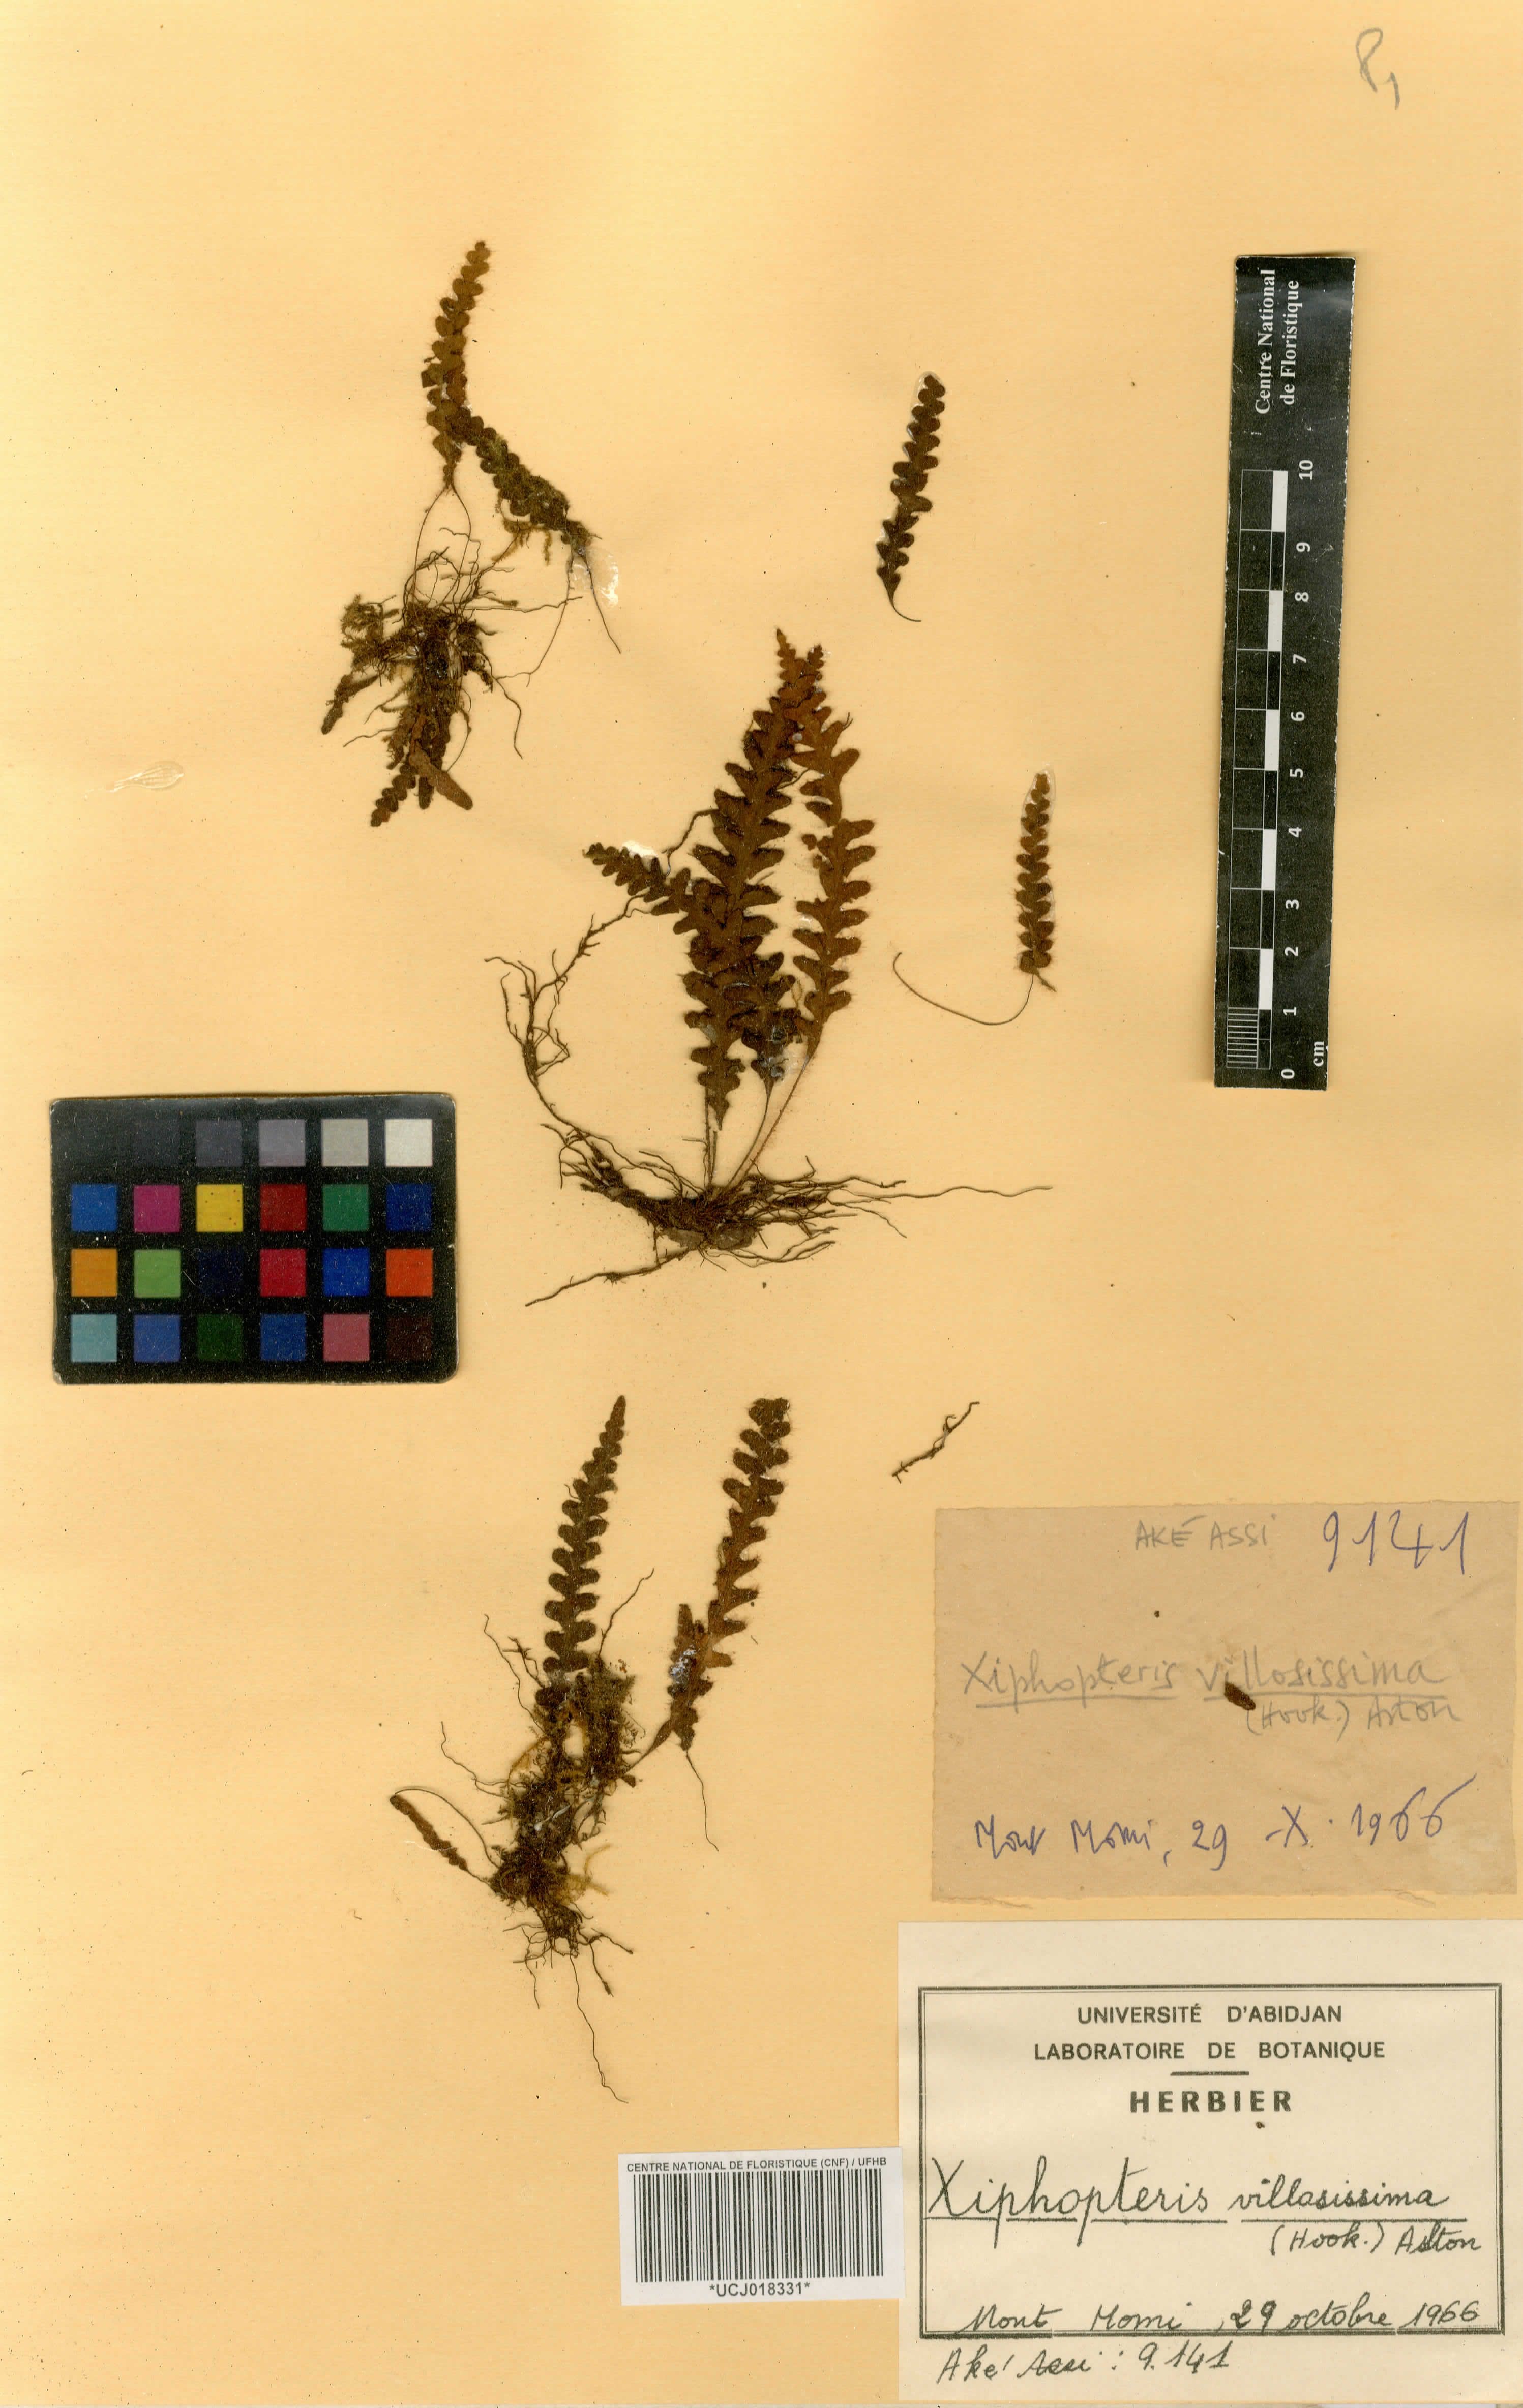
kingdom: Plantae
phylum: Tracheophyta
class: Polypodiopsida
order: Polypodiales
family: Polypodiaceae
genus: Enterosora
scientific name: Enterosora villosissima
